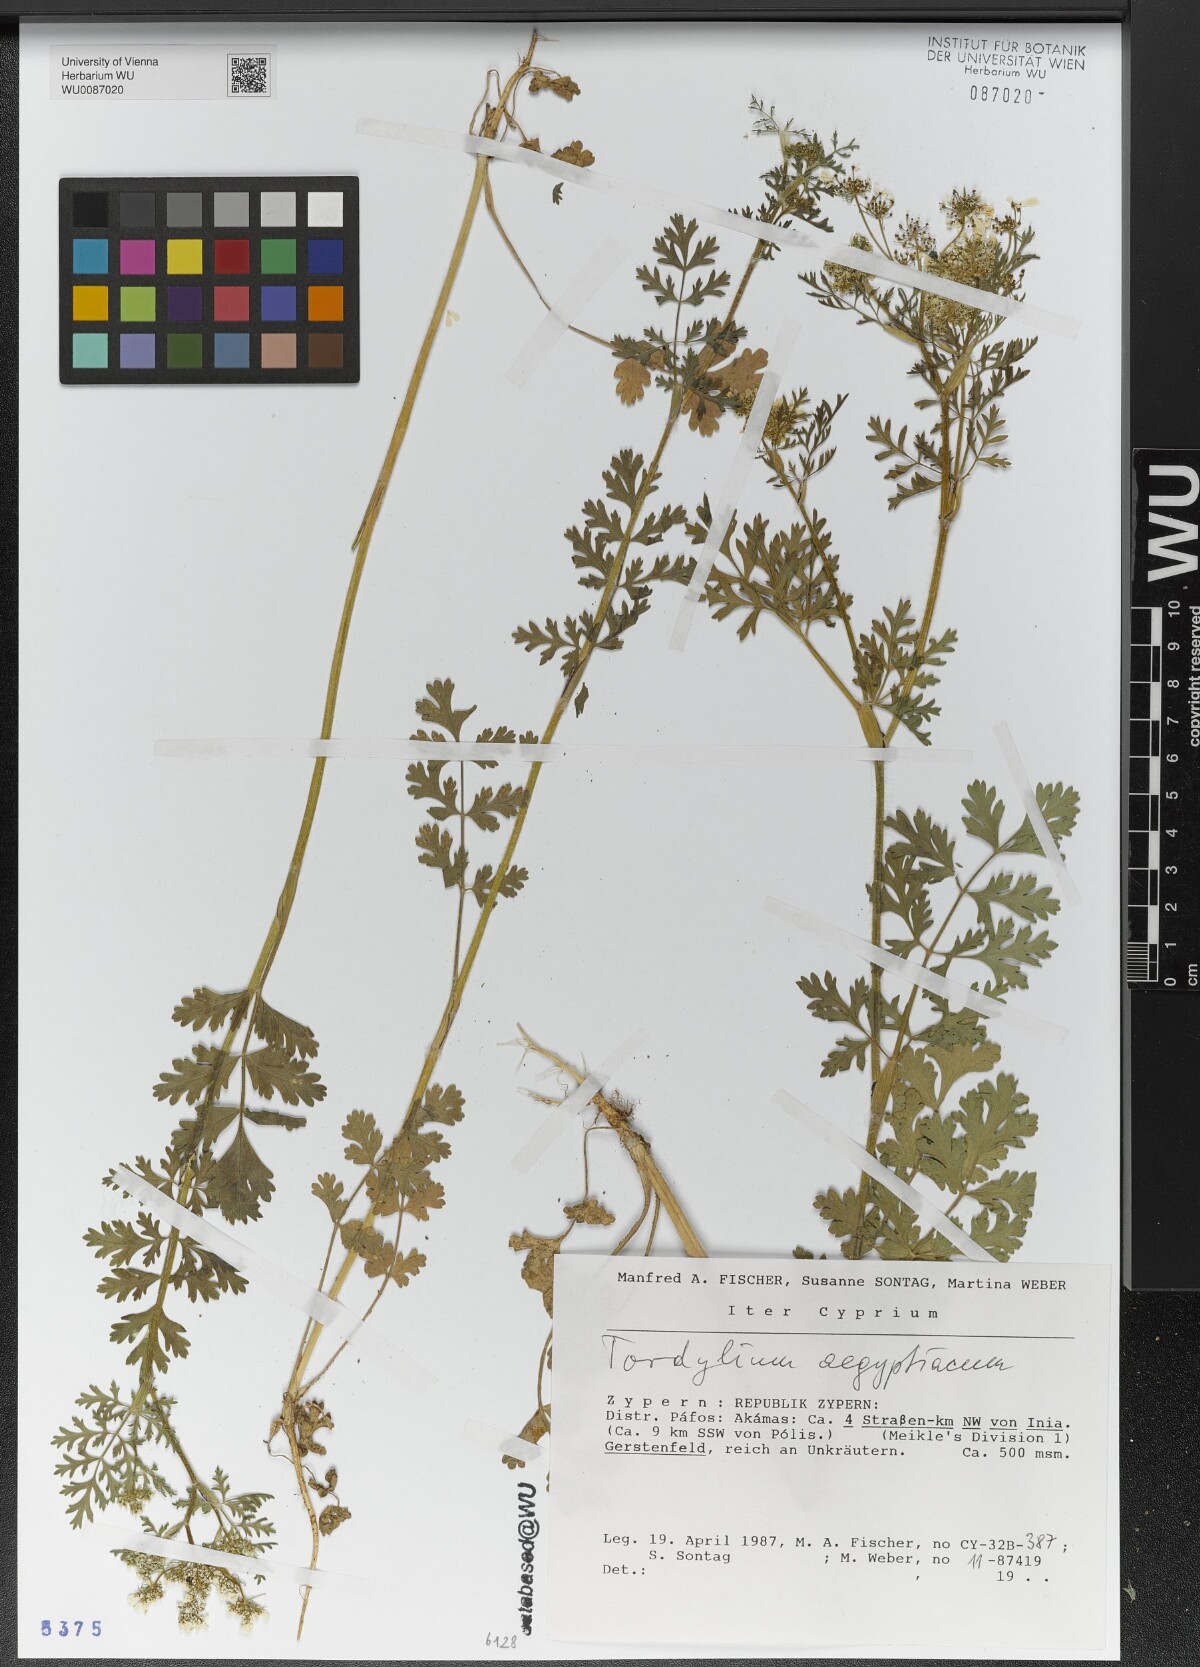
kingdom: Plantae
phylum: Tracheophyta
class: Magnoliopsida
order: Apiales
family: Apiaceae
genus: Tordylium
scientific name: Tordylium aegyptiacum
